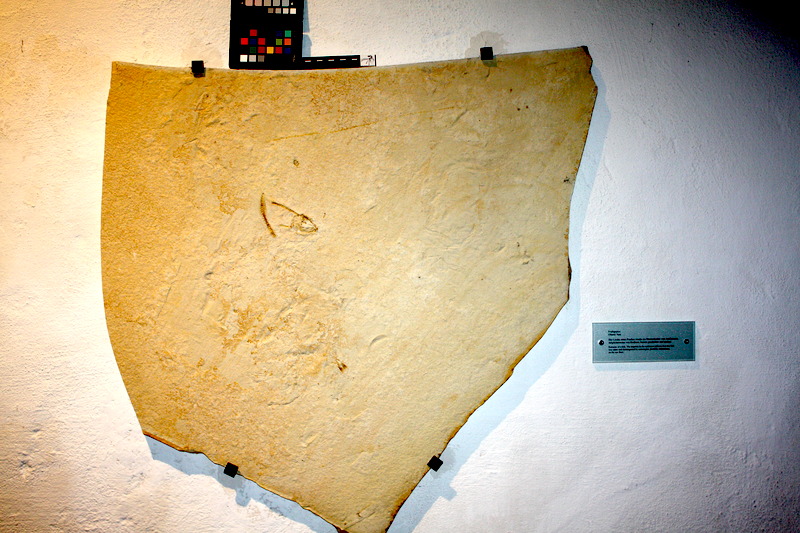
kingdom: Animalia
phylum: Chordata
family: Ascalaboidae
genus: Tharsis
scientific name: Tharsis dubius
